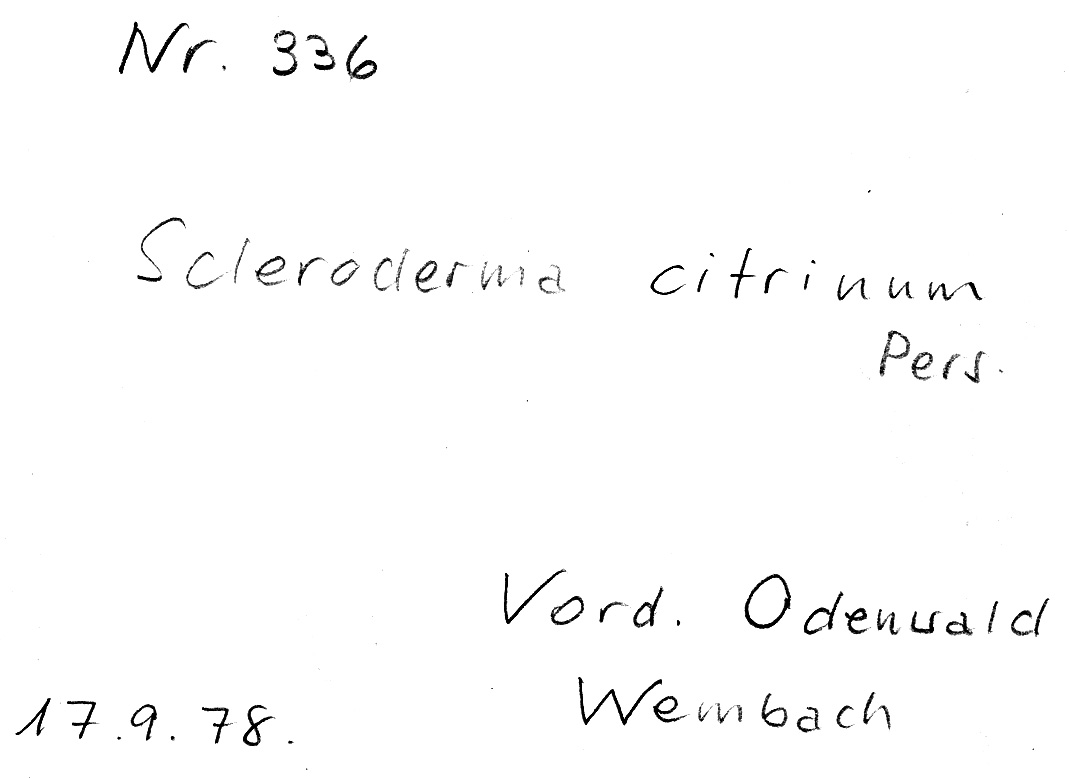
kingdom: Fungi
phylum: Basidiomycota
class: Agaricomycetes
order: Boletales
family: Sclerodermataceae
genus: Scleroderma
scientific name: Scleroderma citrinum
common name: Common earthball
